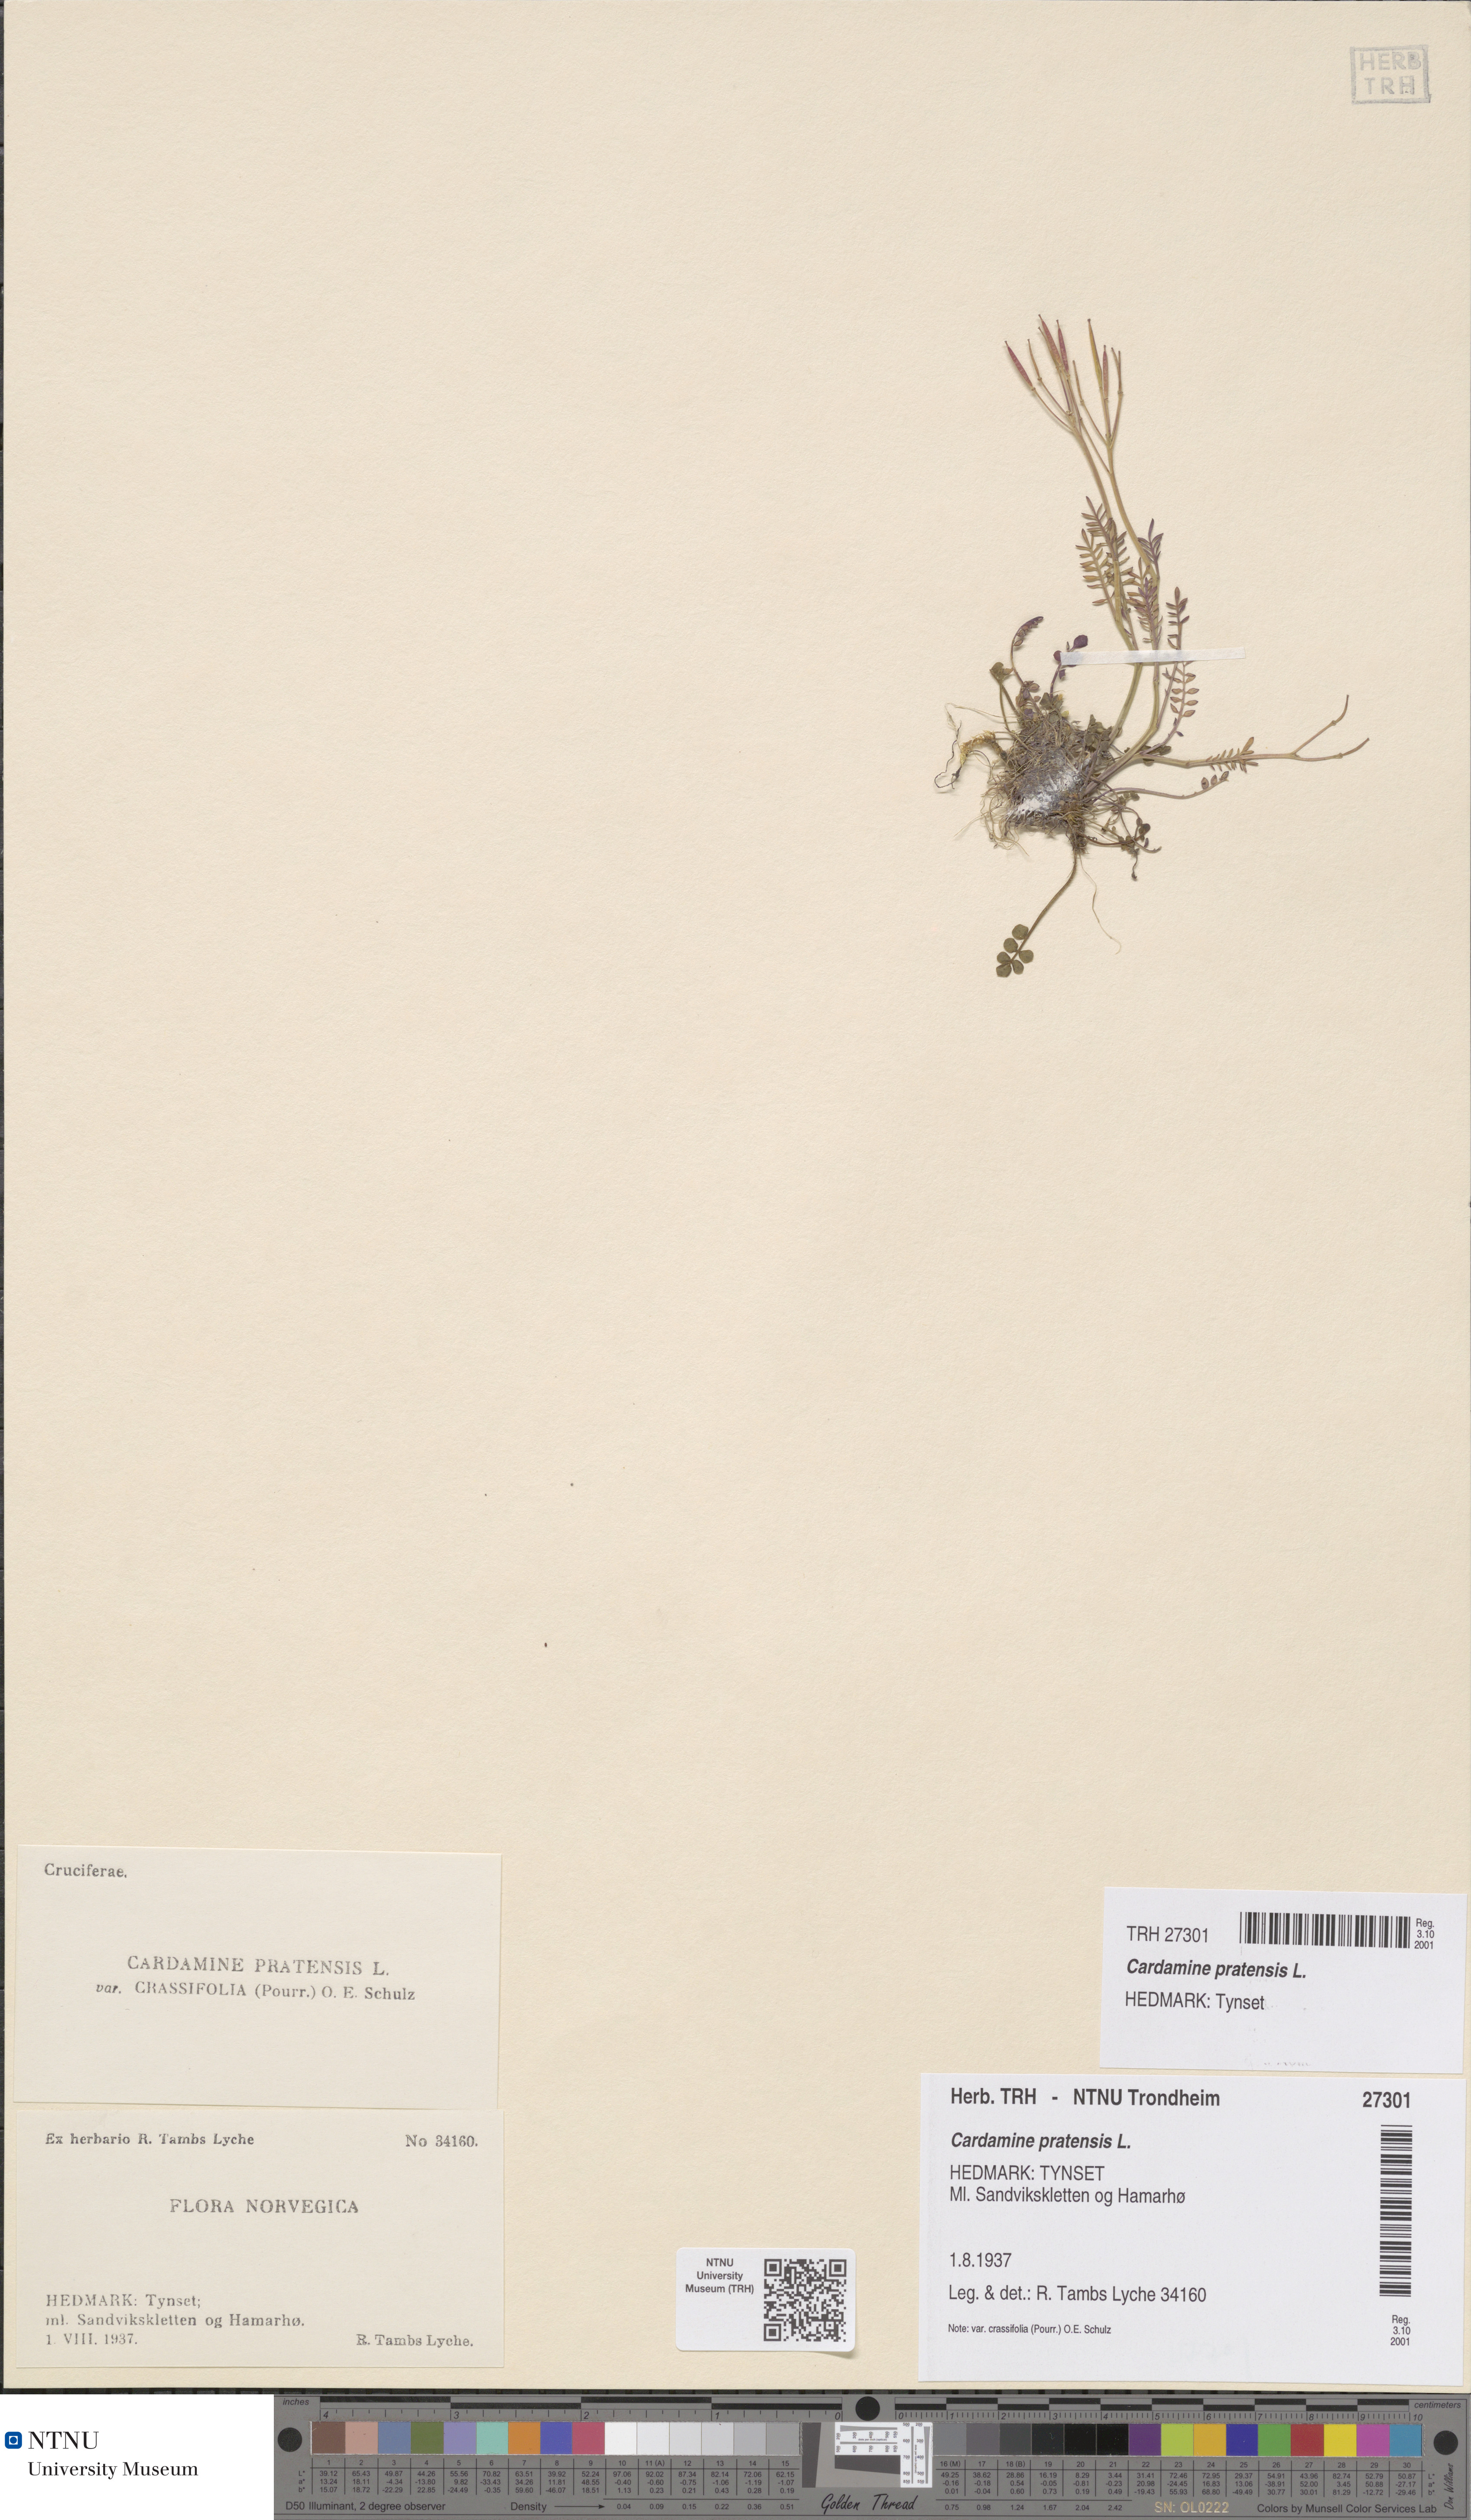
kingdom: Plantae
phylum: Tracheophyta
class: Magnoliopsida
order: Brassicales
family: Brassicaceae
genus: Cardamine
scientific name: Cardamine nymanii
